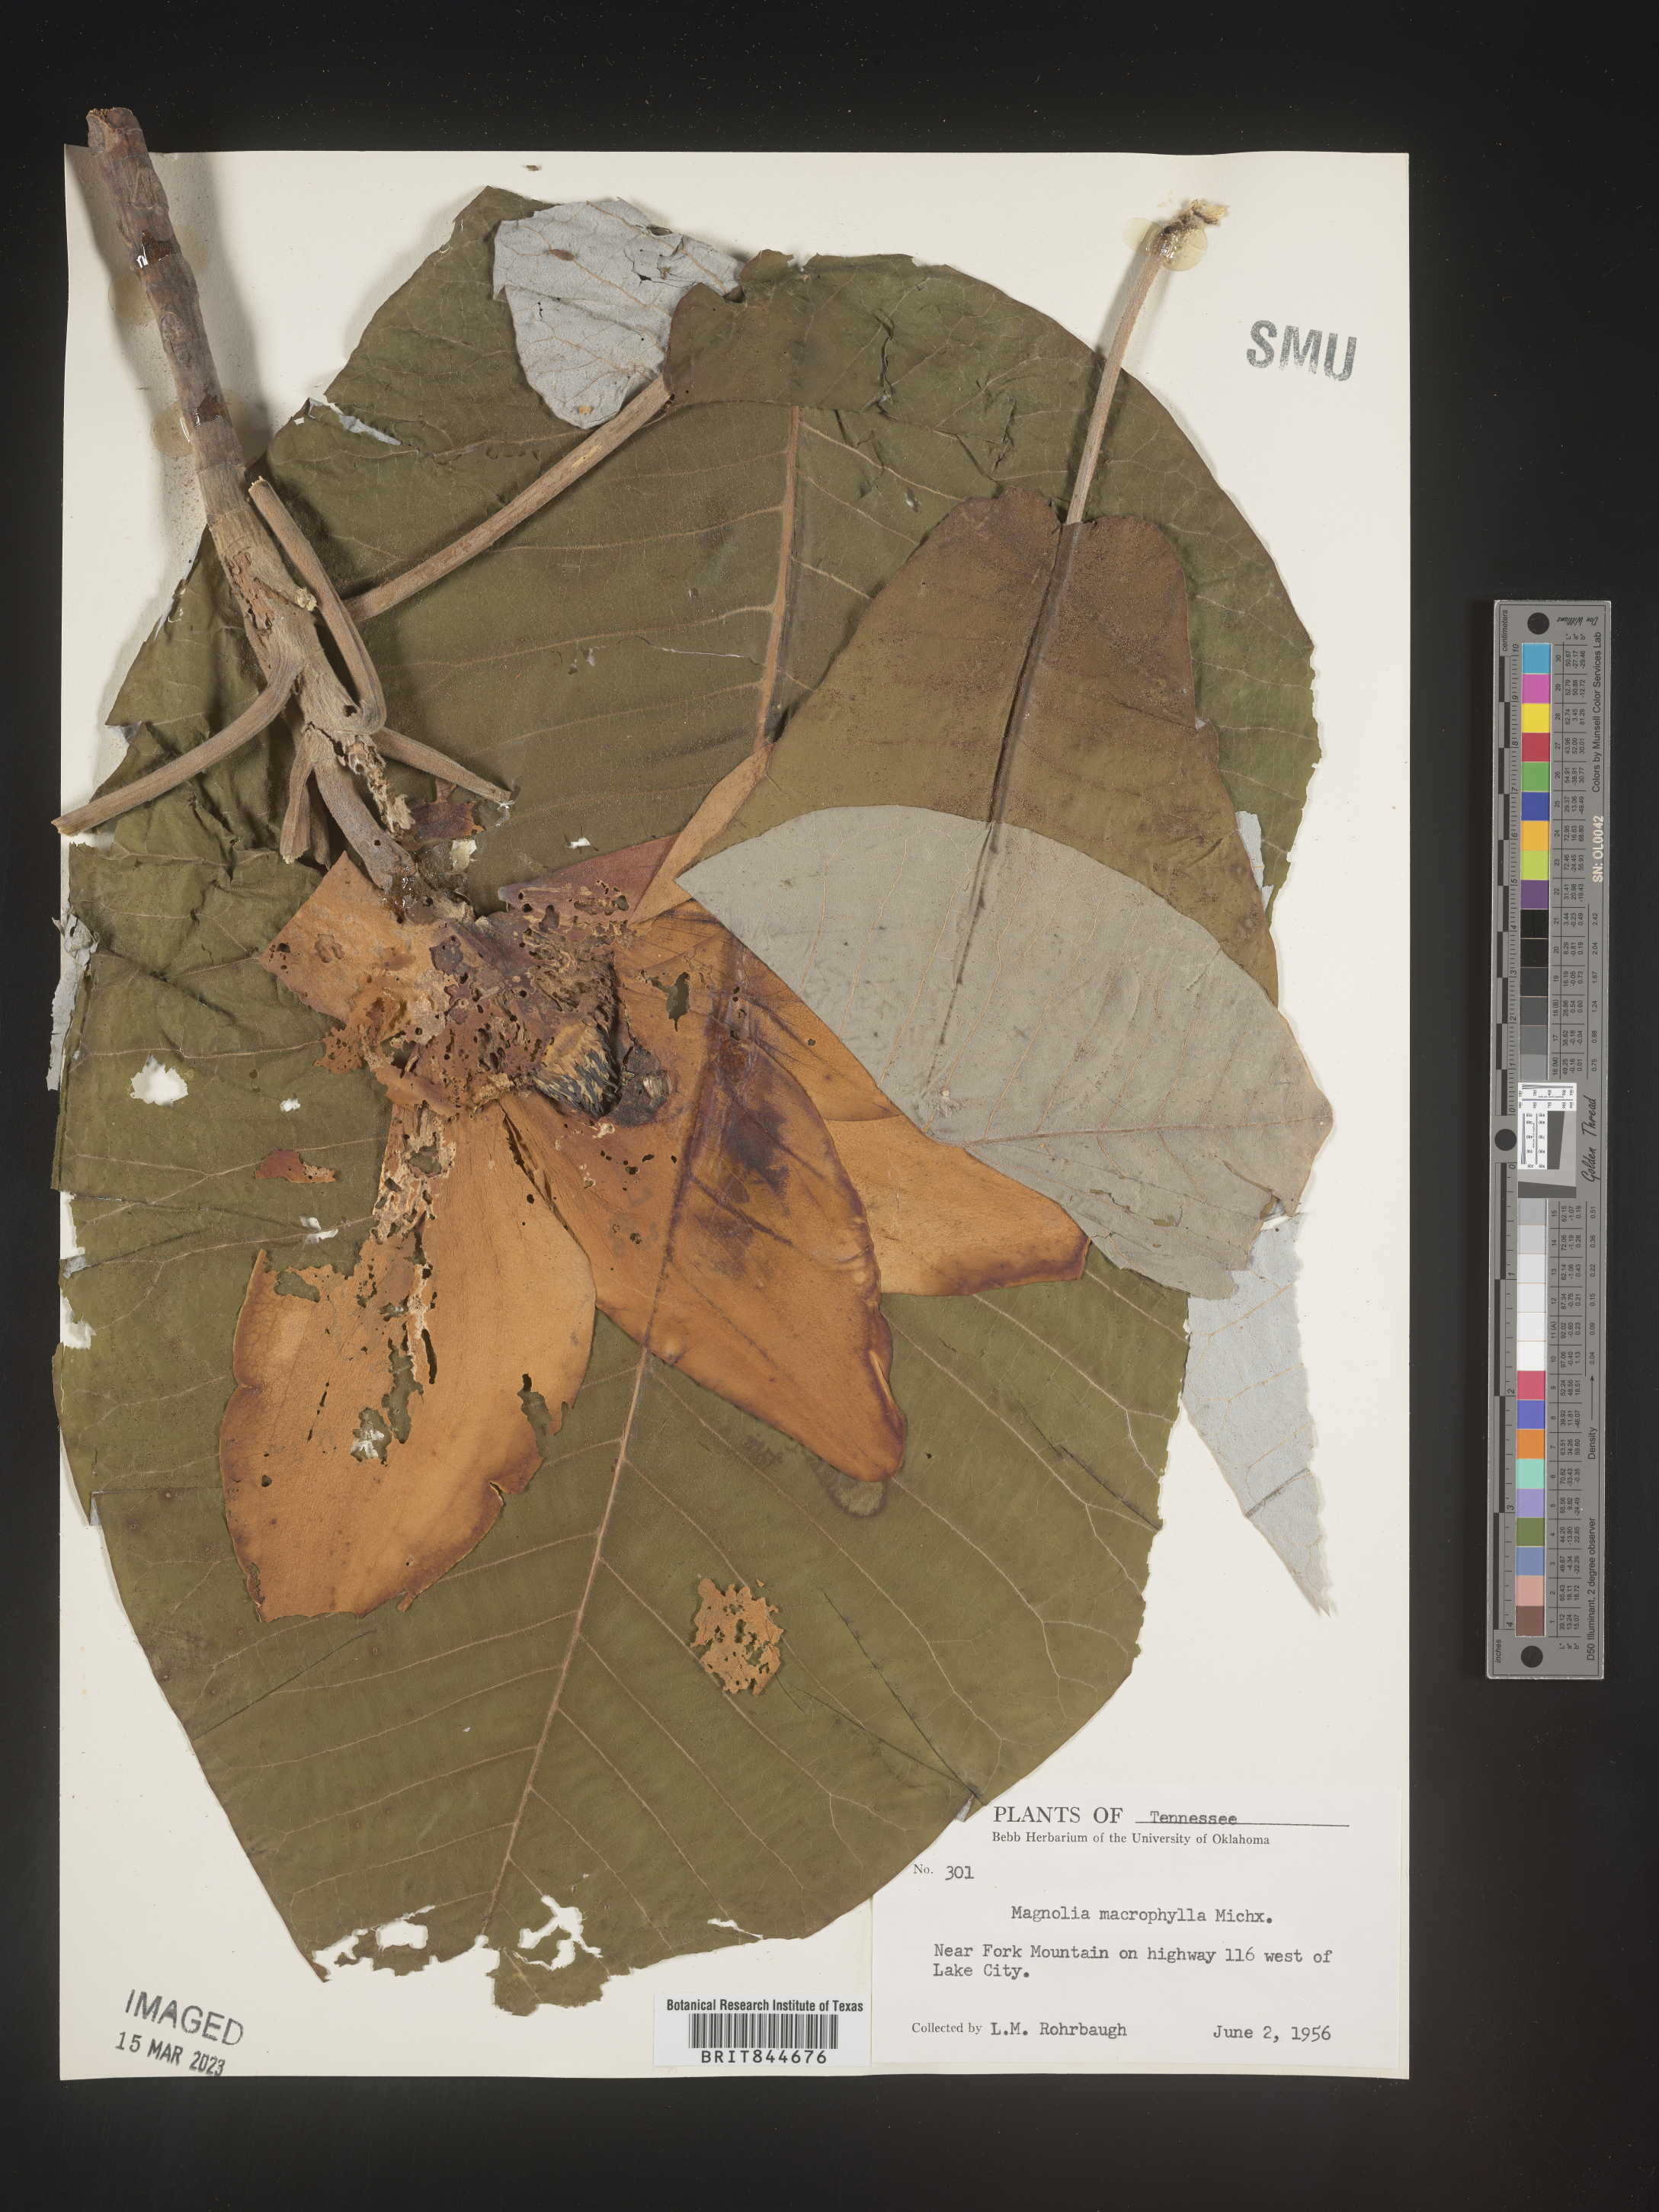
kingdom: Plantae
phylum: Tracheophyta
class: Magnoliopsida
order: Magnoliales
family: Magnoliaceae
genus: Magnolia
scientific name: Magnolia macrophylla
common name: Big-leaf magnolia
